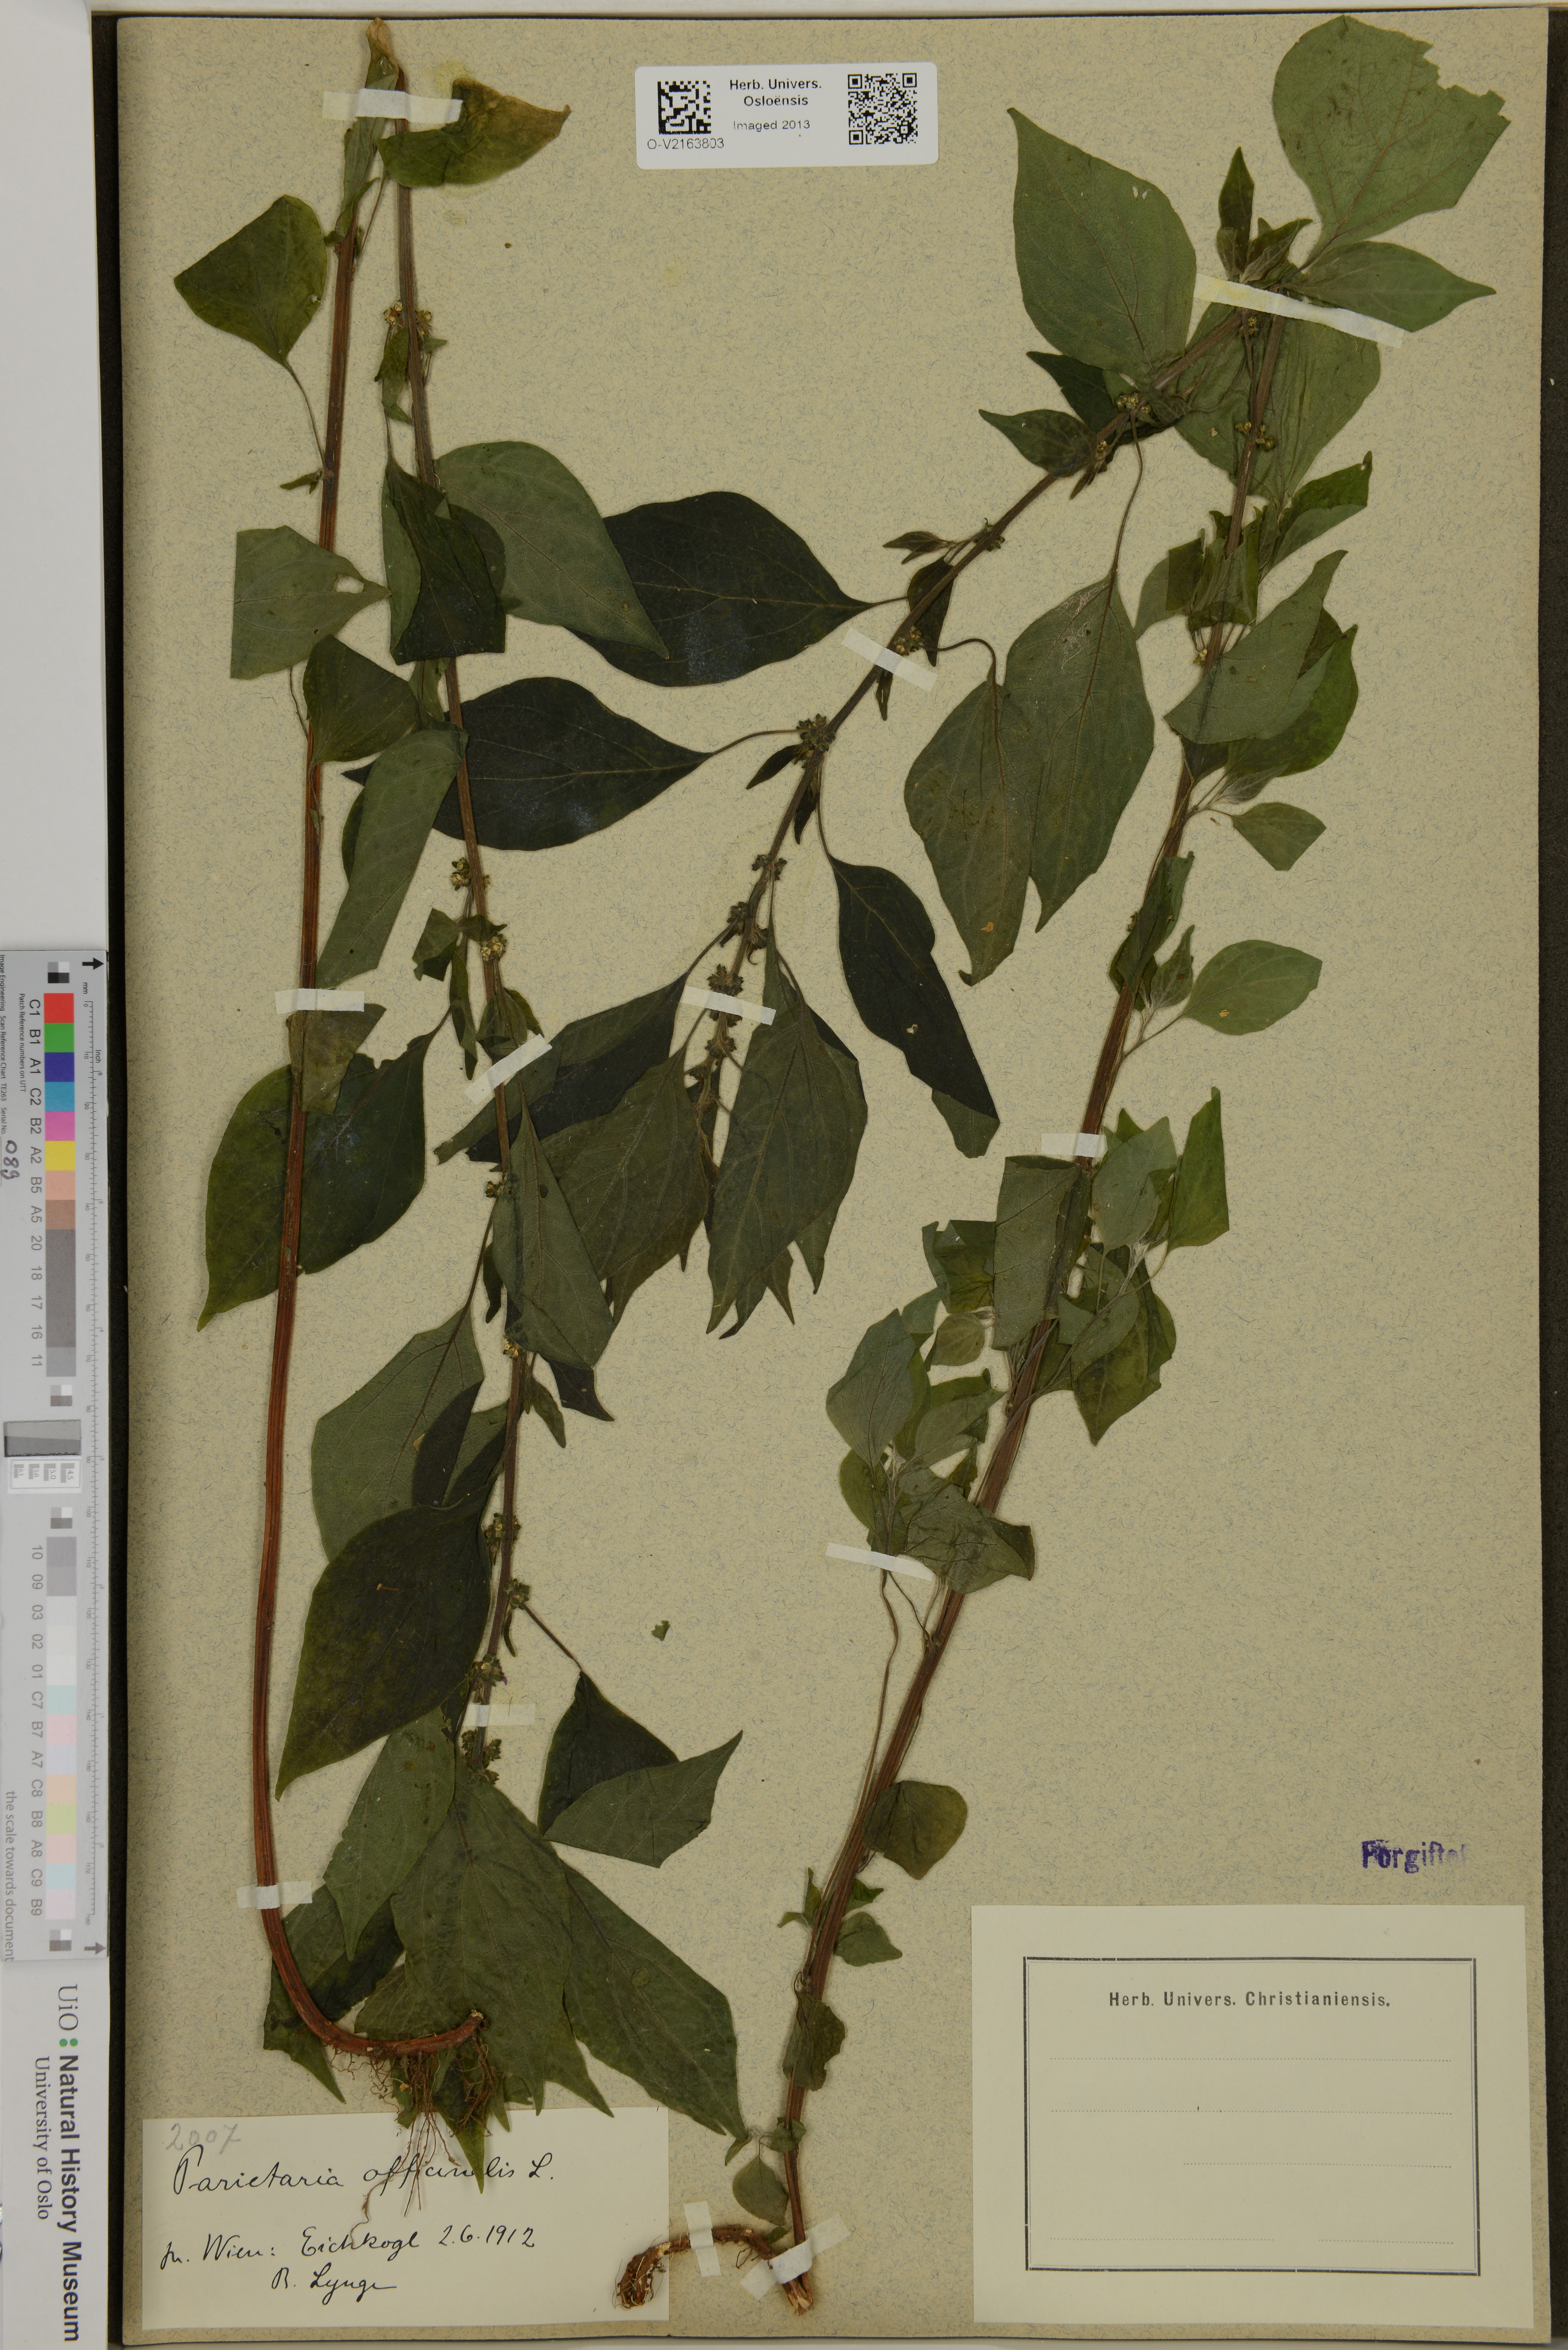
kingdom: Plantae
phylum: Tracheophyta
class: Magnoliopsida
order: Rosales
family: Urticaceae
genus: Parietaria
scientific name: Parietaria officinalis
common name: Eastern pellitory-of-the-wall
